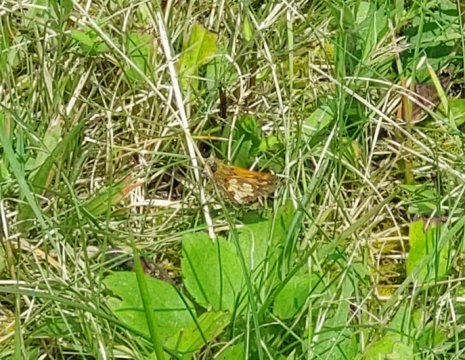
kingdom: Animalia
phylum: Arthropoda
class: Insecta
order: Lepidoptera
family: Hesperiidae
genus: Polites
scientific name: Polites coras
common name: Peck's Skipper
